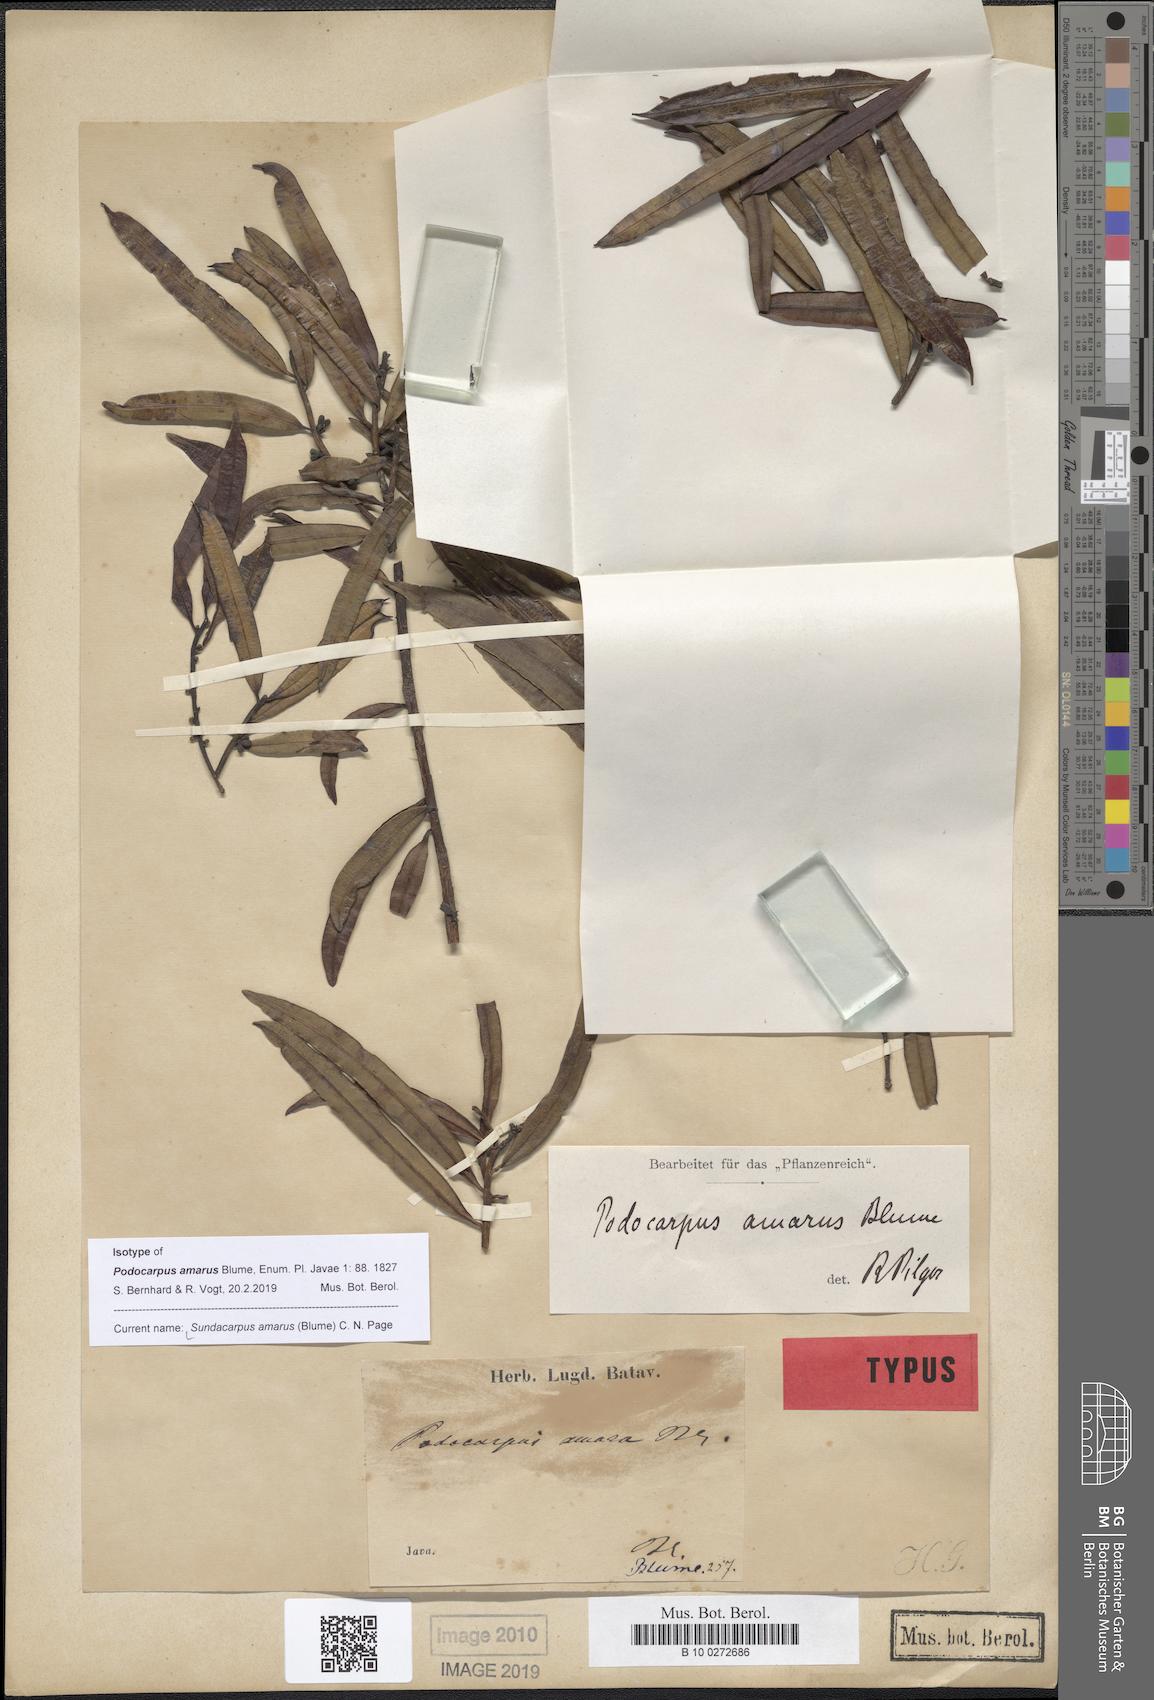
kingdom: Plantae
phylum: Tracheophyta
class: Pinopsida
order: Pinales
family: Podocarpaceae
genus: Sundacarpus
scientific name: Sundacarpus amarus
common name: Black pine
